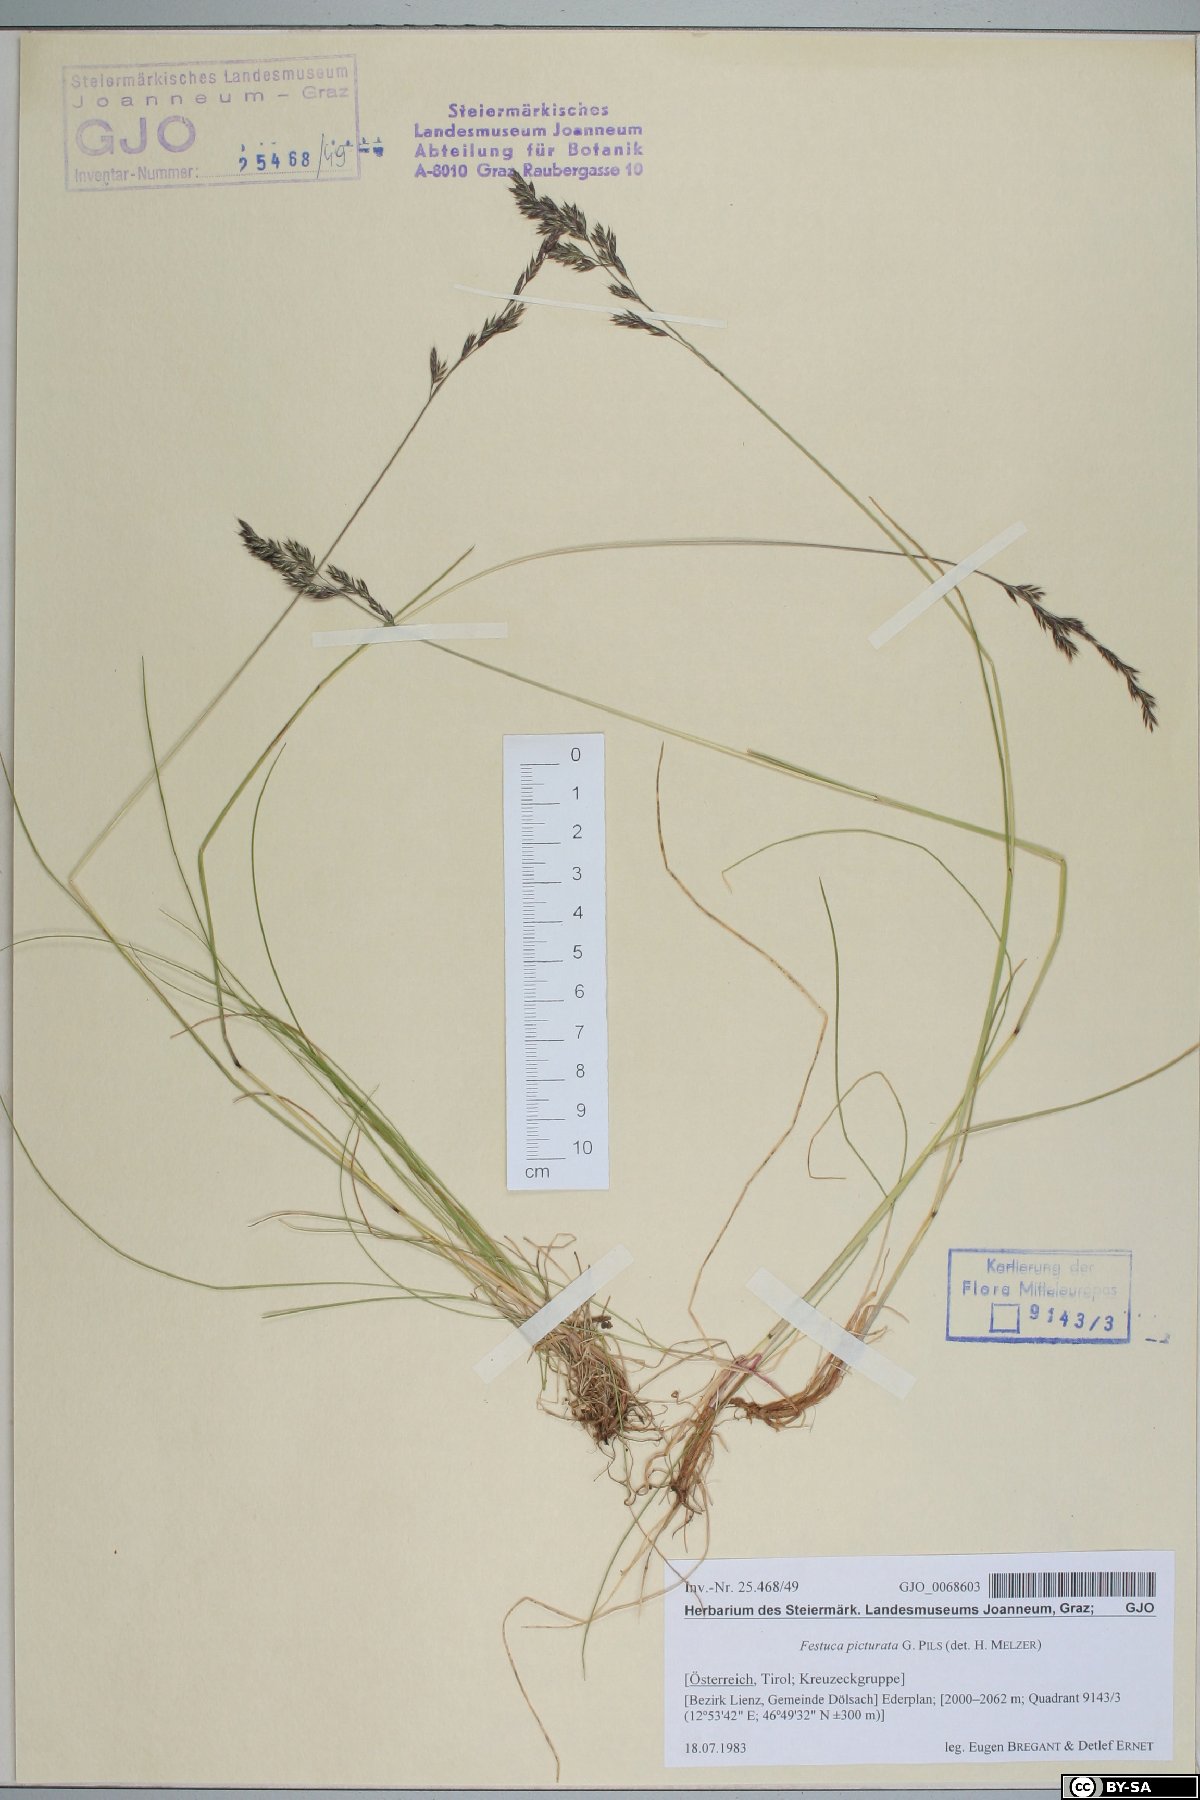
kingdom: Plantae
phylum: Tracheophyta
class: Liliopsida
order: Poales
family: Poaceae
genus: Festuca
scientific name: Festuca picturata
